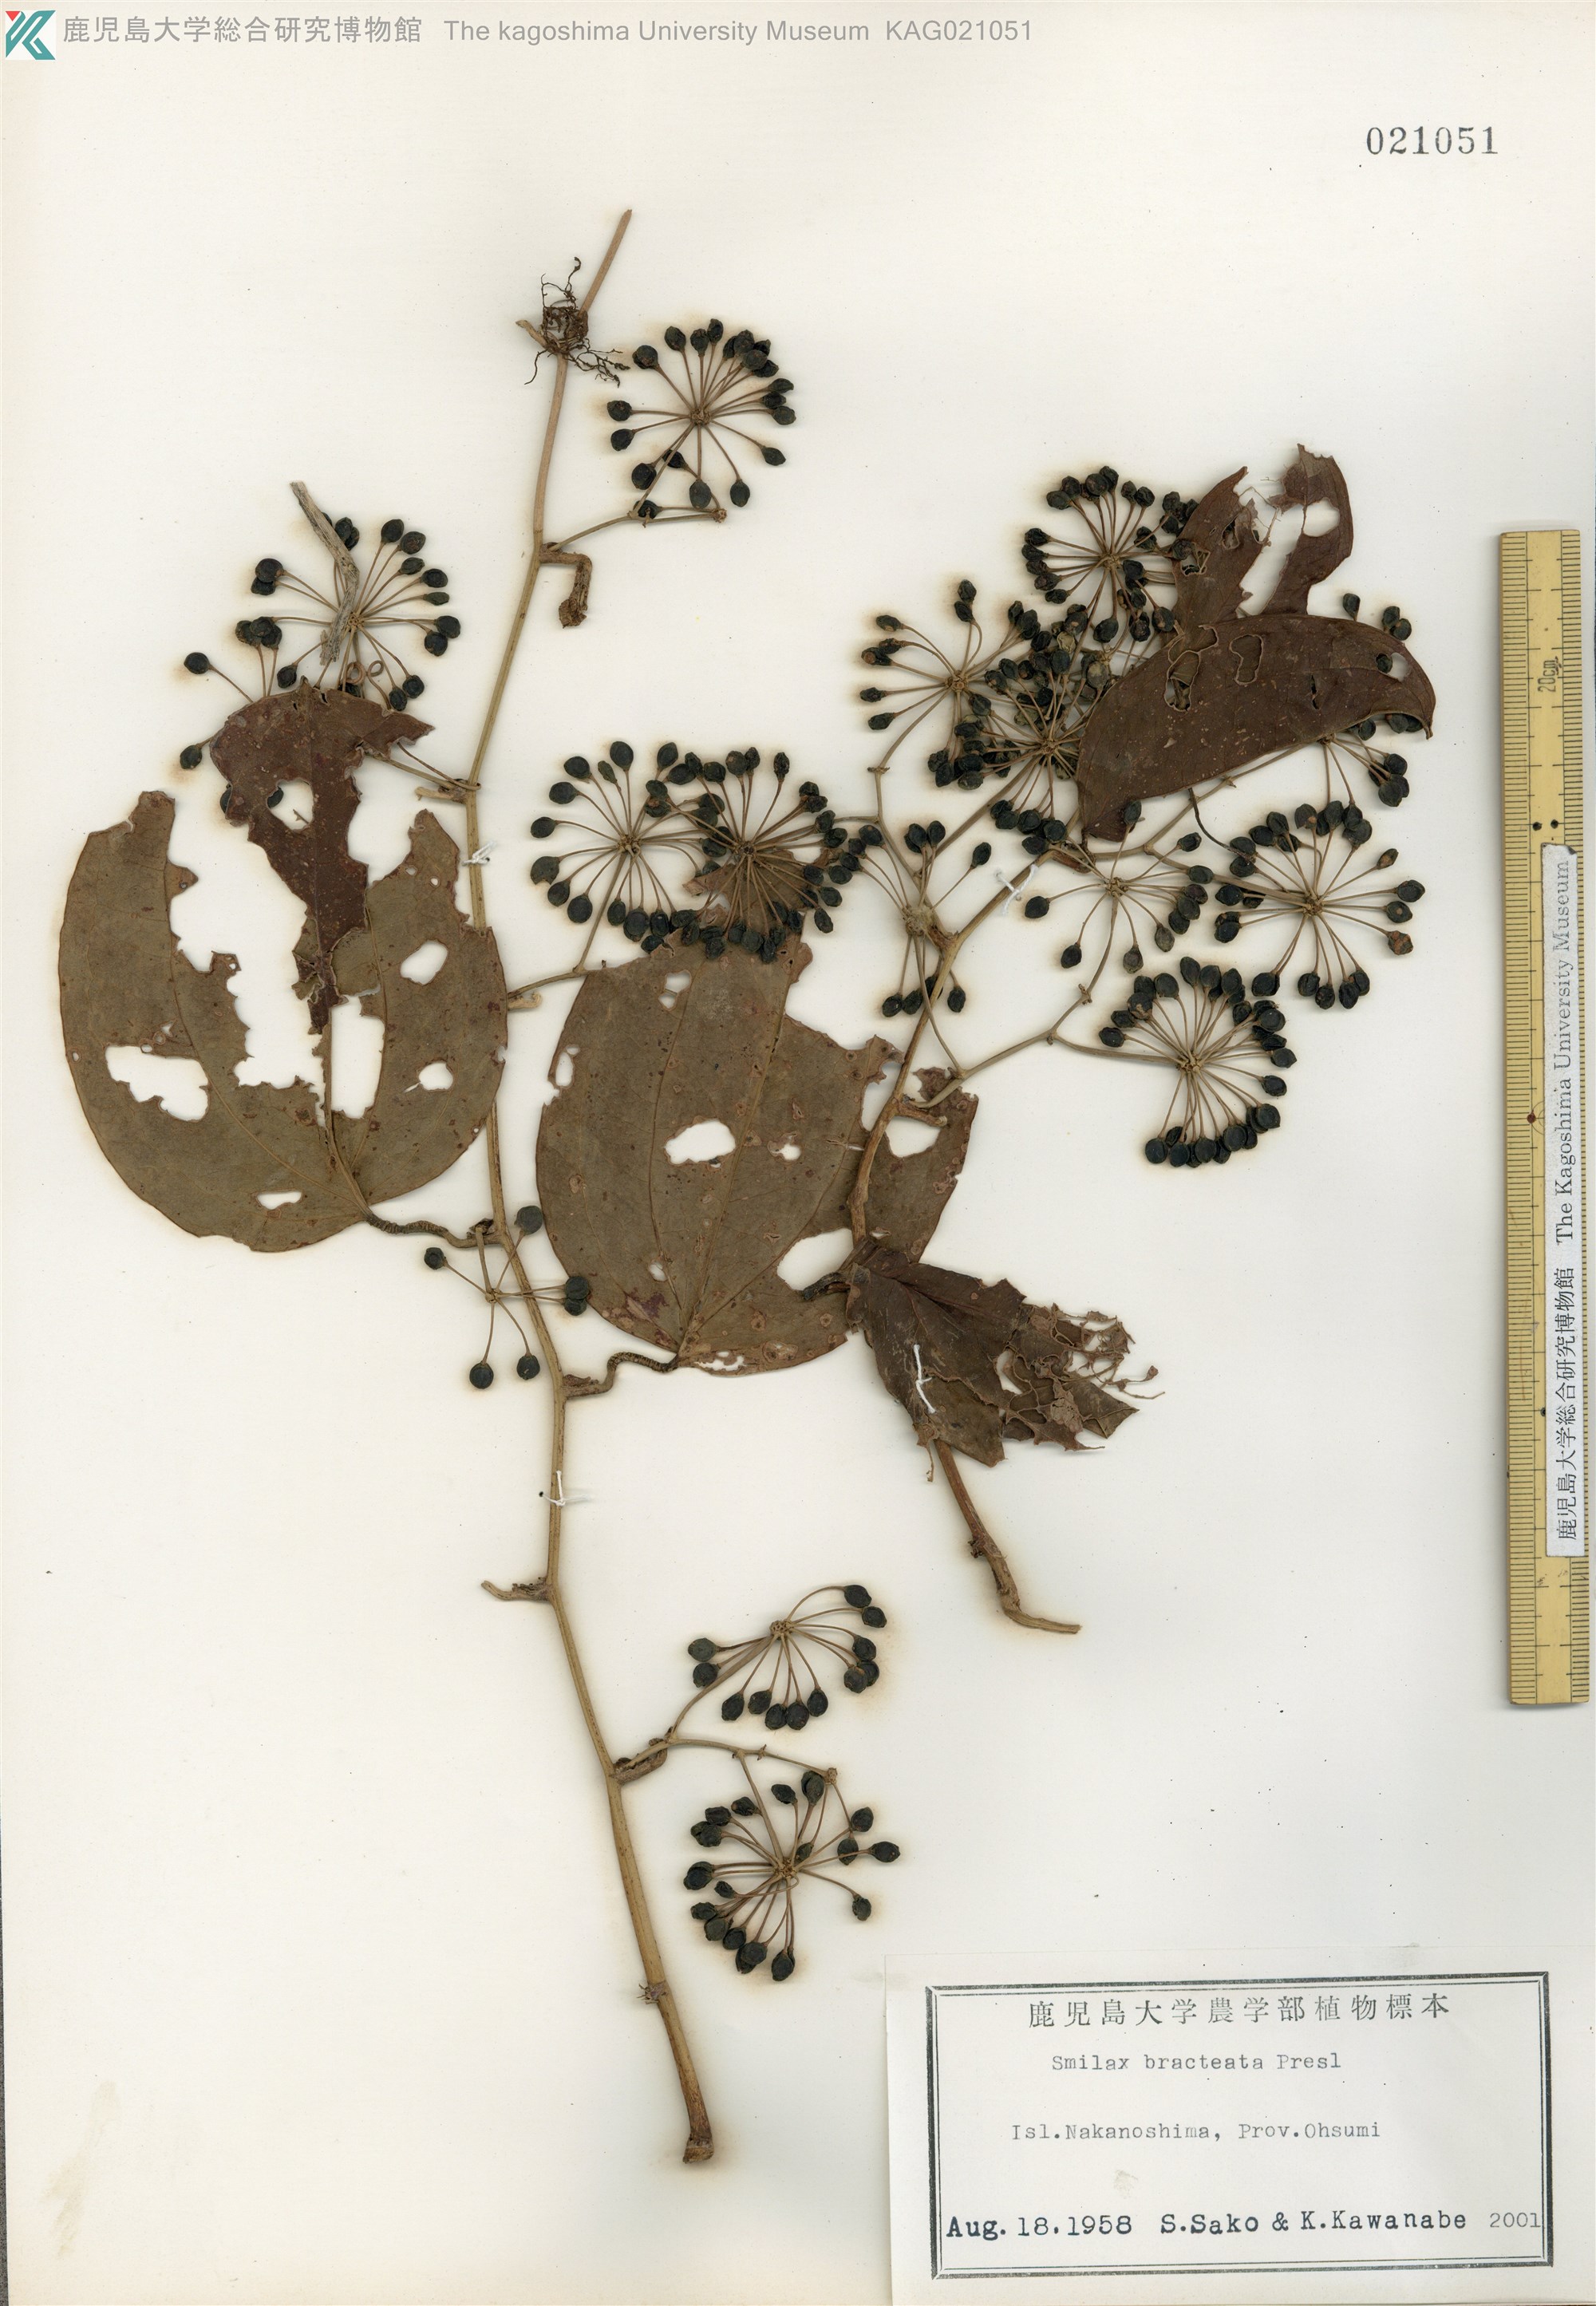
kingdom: Plantae
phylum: Tracheophyta
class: Liliopsida
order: Liliales
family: Smilacaceae
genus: Smilax
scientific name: Smilax bracteata
